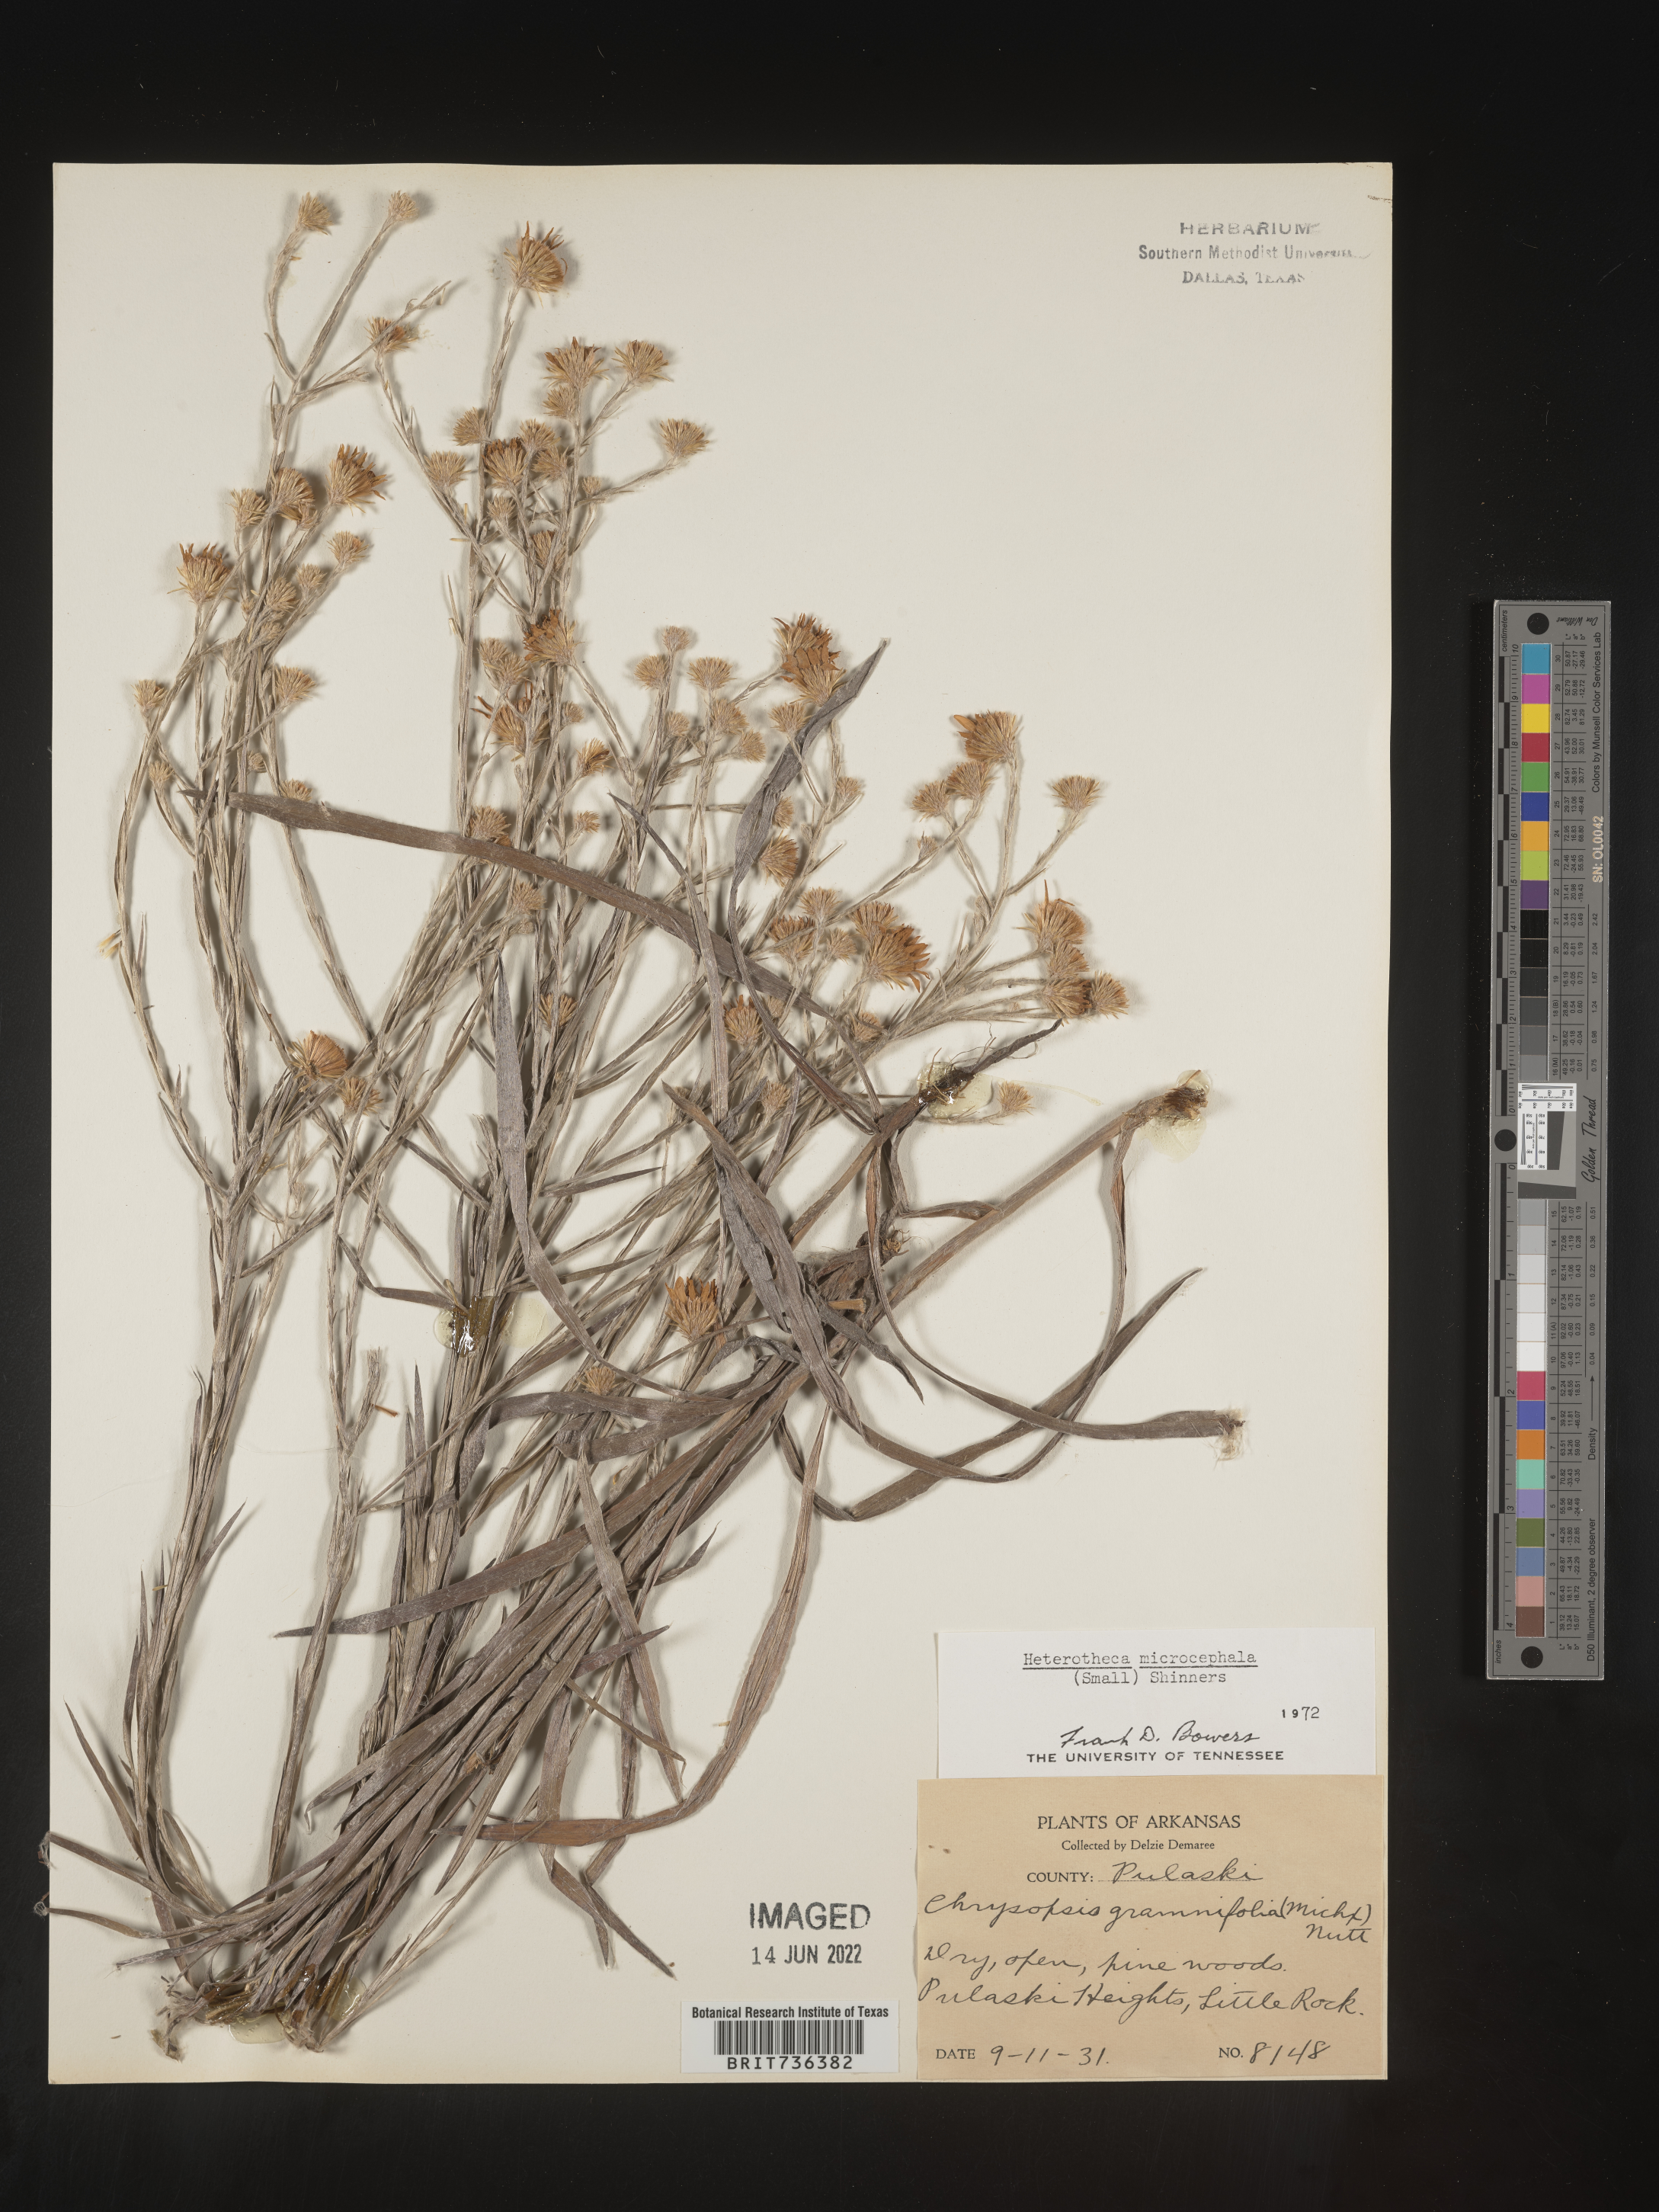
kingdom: Plantae
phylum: Tracheophyta
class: Magnoliopsida
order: Asterales
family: Asteraceae
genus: Pityopsis
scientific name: Pityopsis tenuifolia
